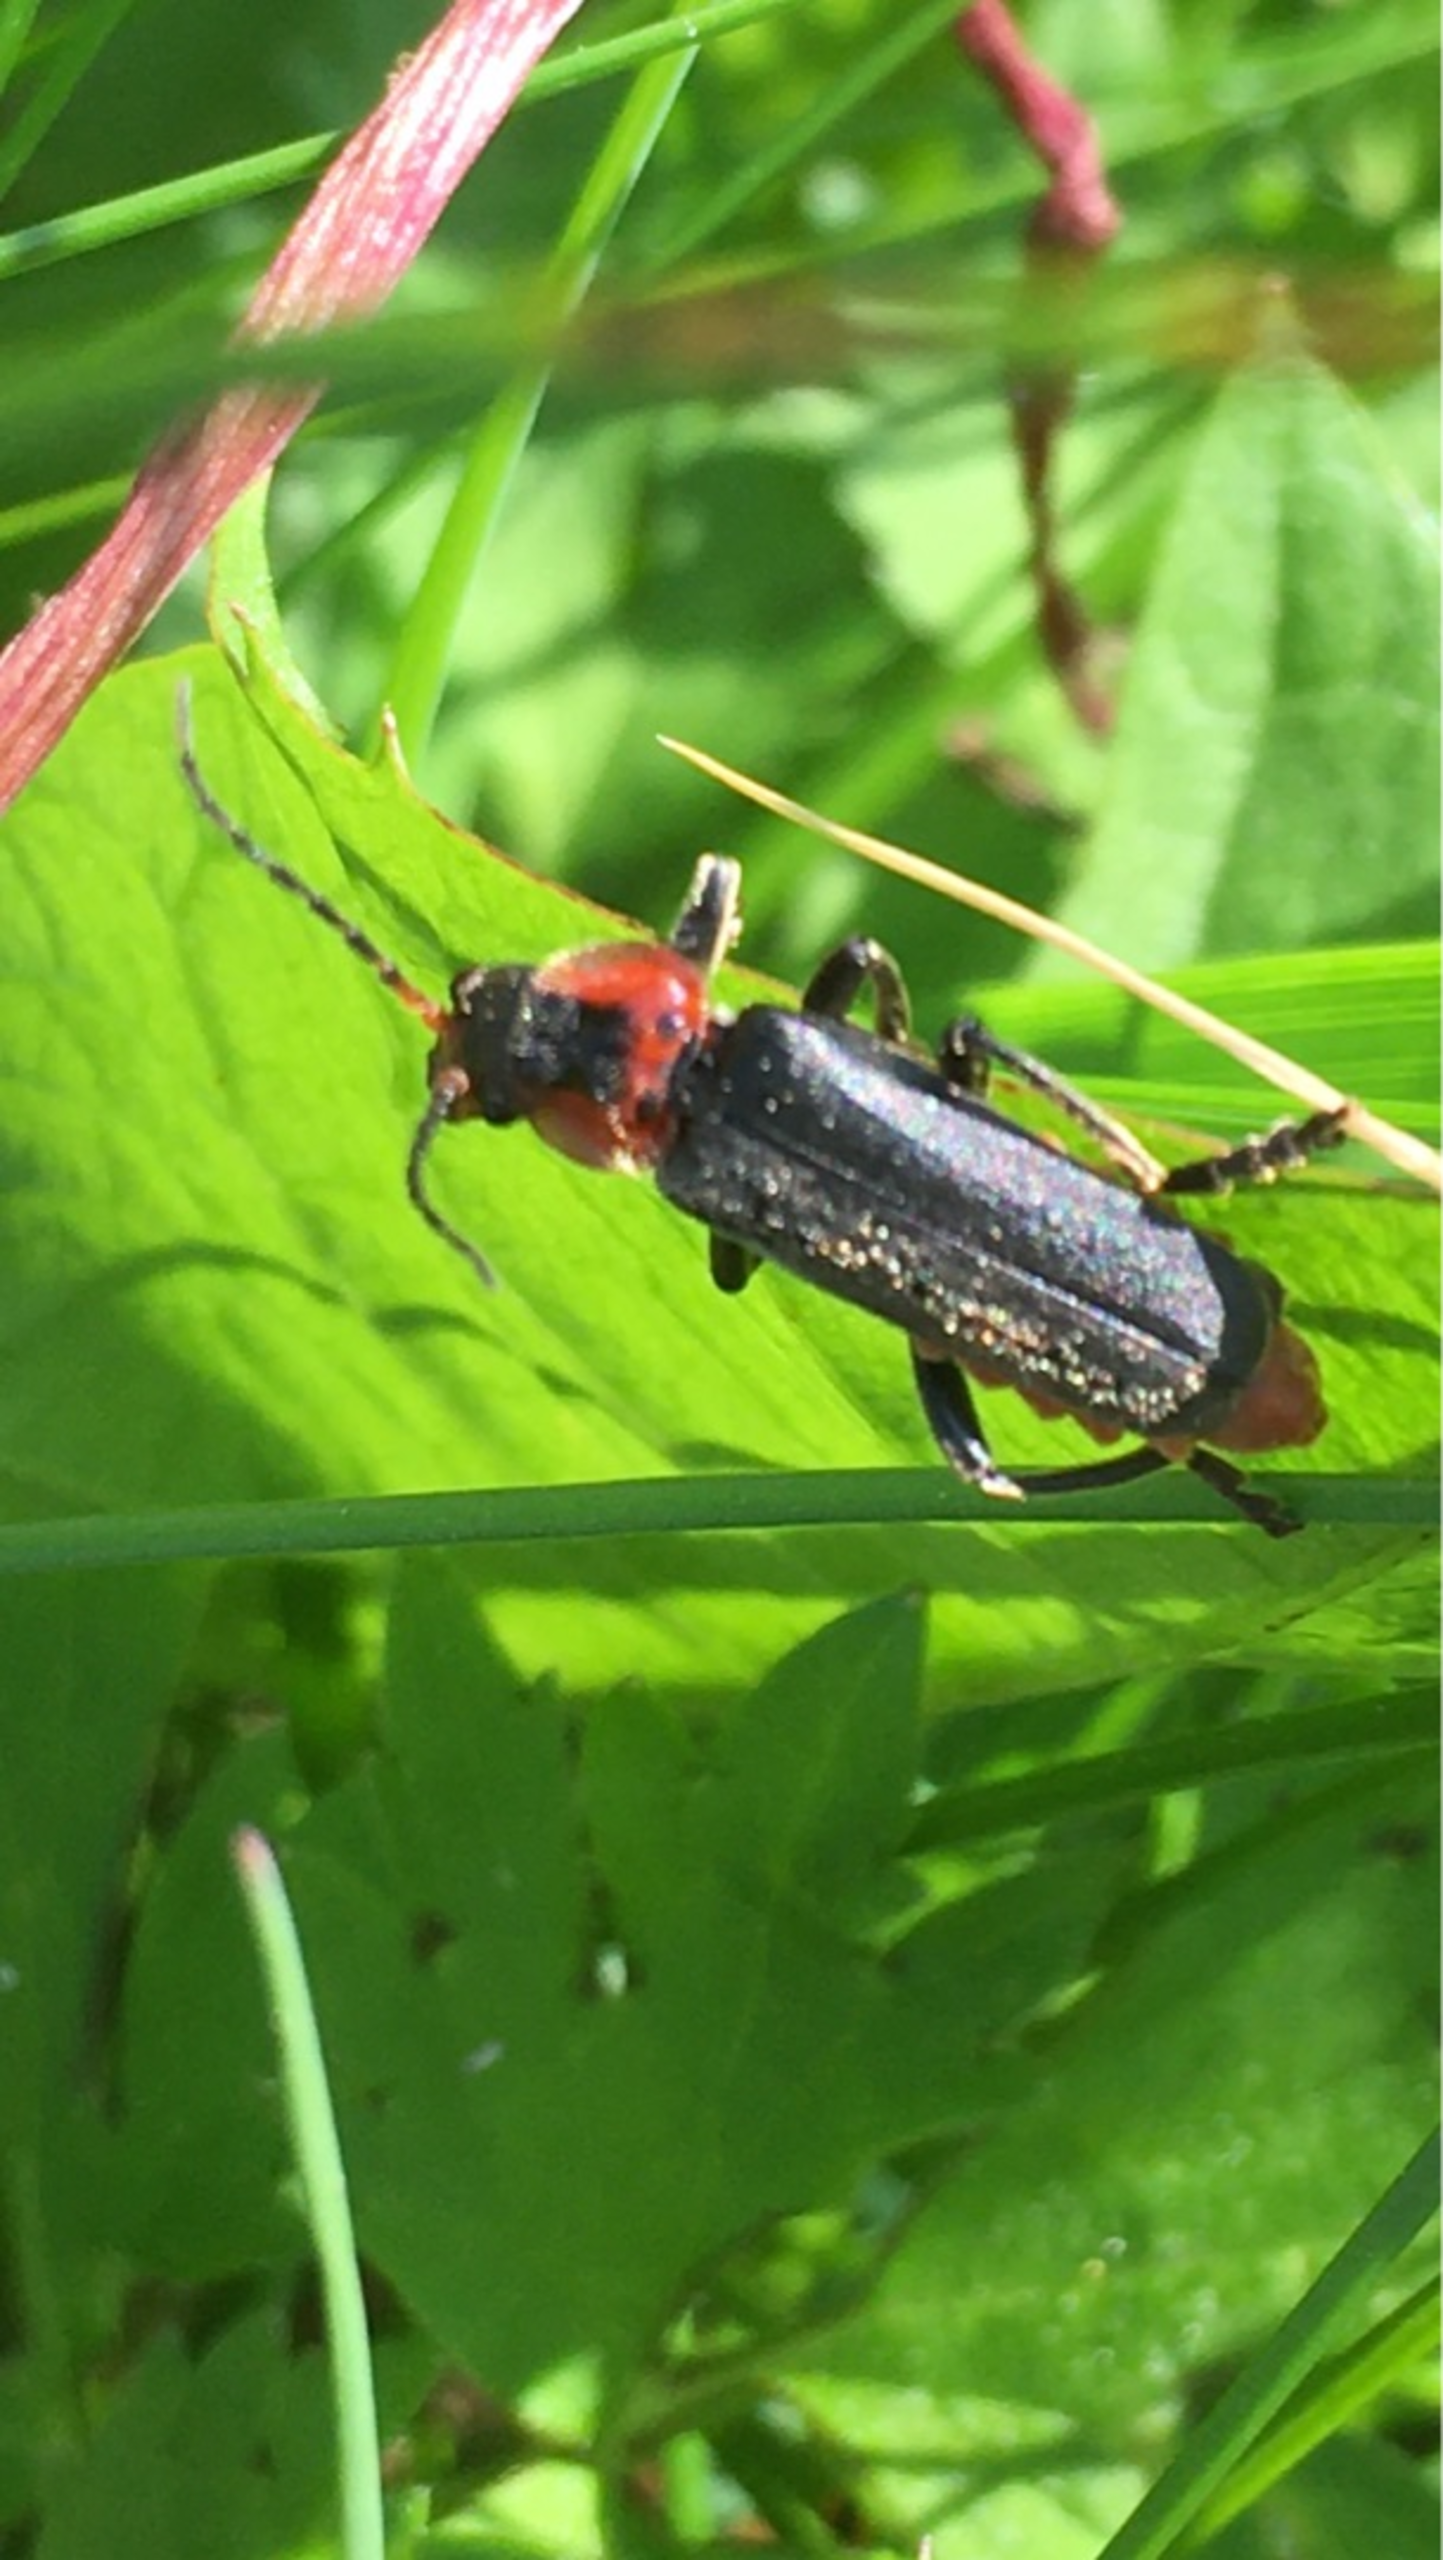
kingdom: Animalia
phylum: Arthropoda
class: Insecta
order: Coleoptera
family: Cantharidae
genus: Cantharis
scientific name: Cantharis fusca
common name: Stor blødvinge
